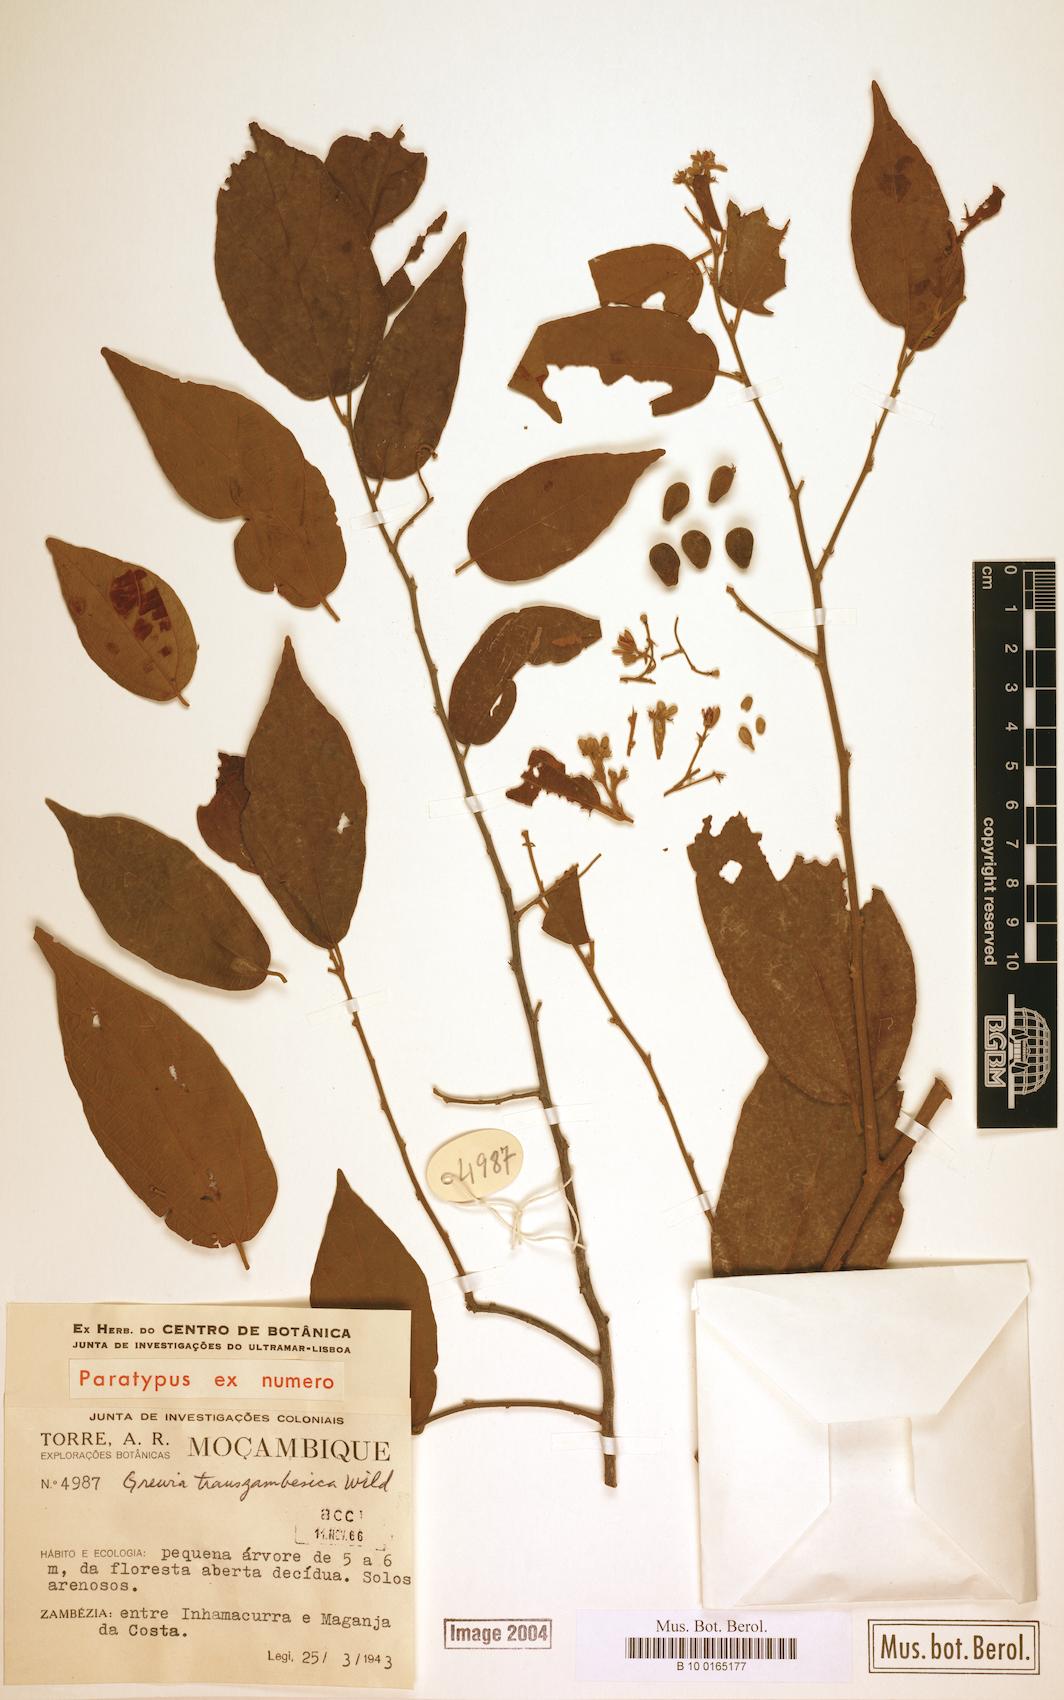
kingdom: Plantae
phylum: Tracheophyta
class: Magnoliopsida
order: Malvales
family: Malvaceae
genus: Microcos
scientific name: Microcos heterotricha
